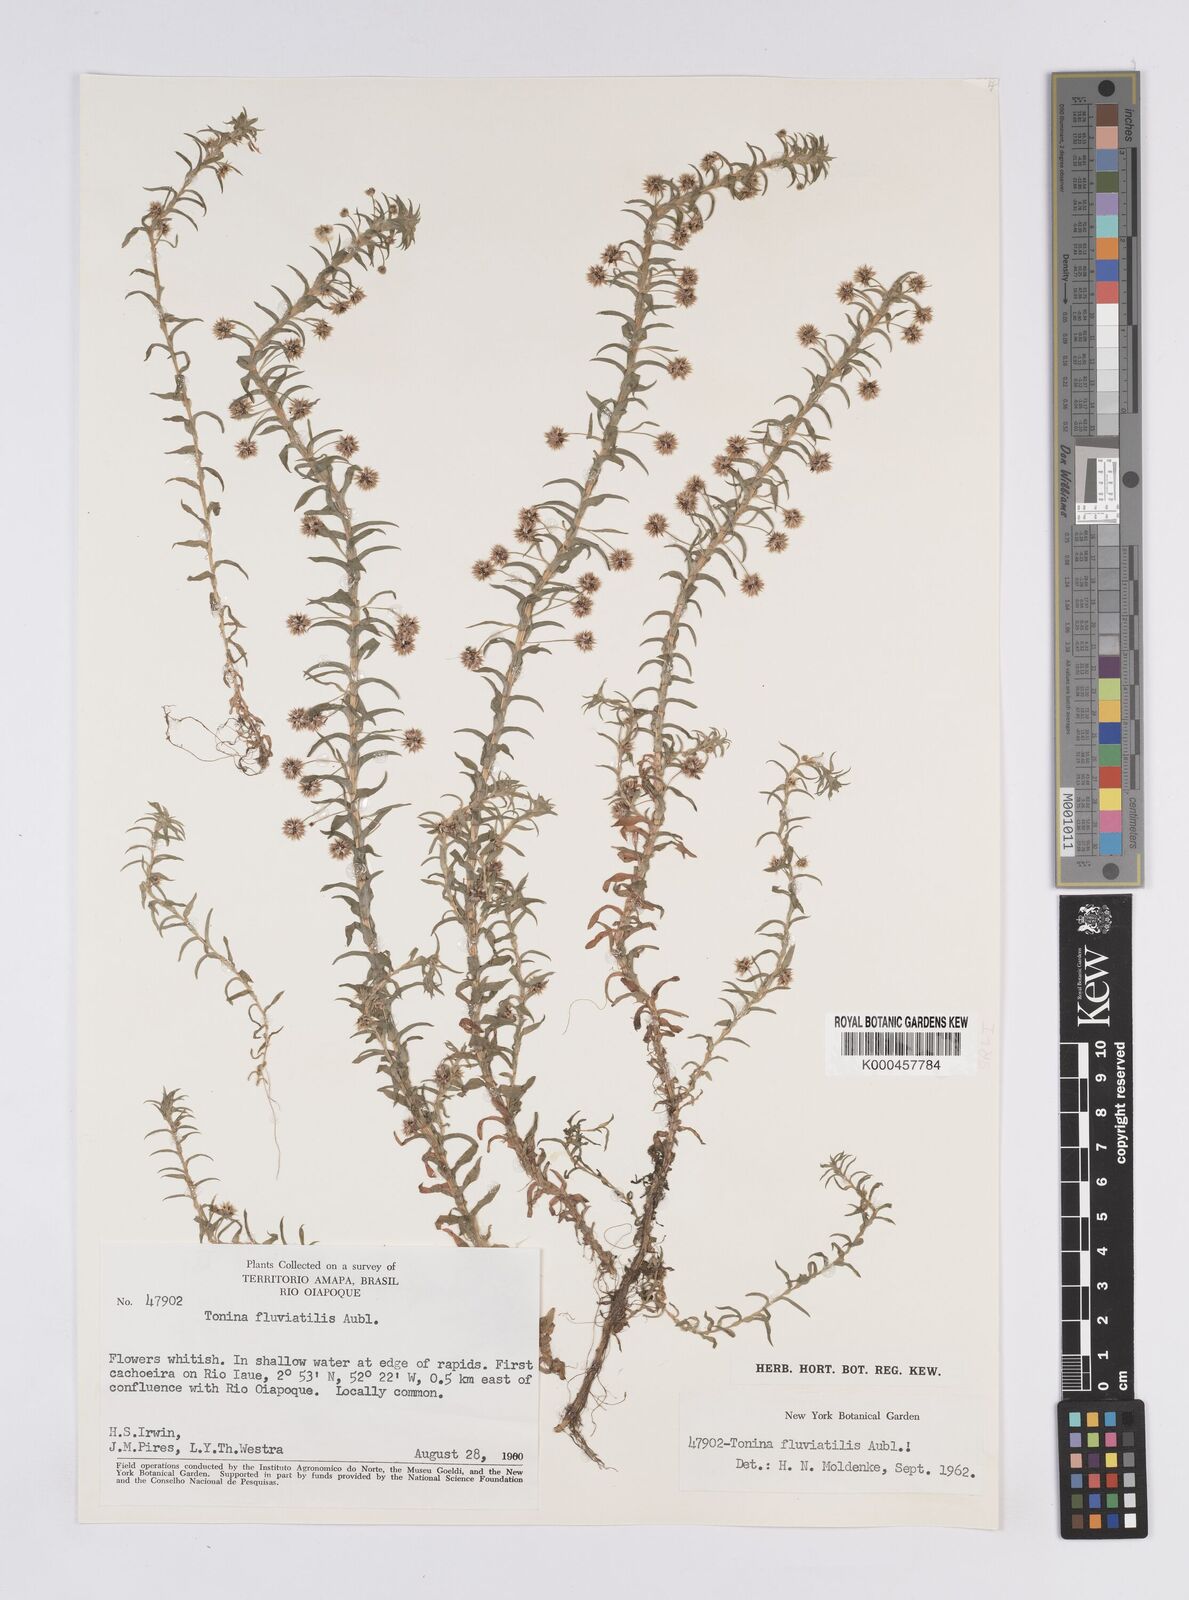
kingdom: Plantae
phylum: Tracheophyta
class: Liliopsida
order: Poales
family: Eriocaulaceae
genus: Paepalanthus
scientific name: Paepalanthus fluviatilis
